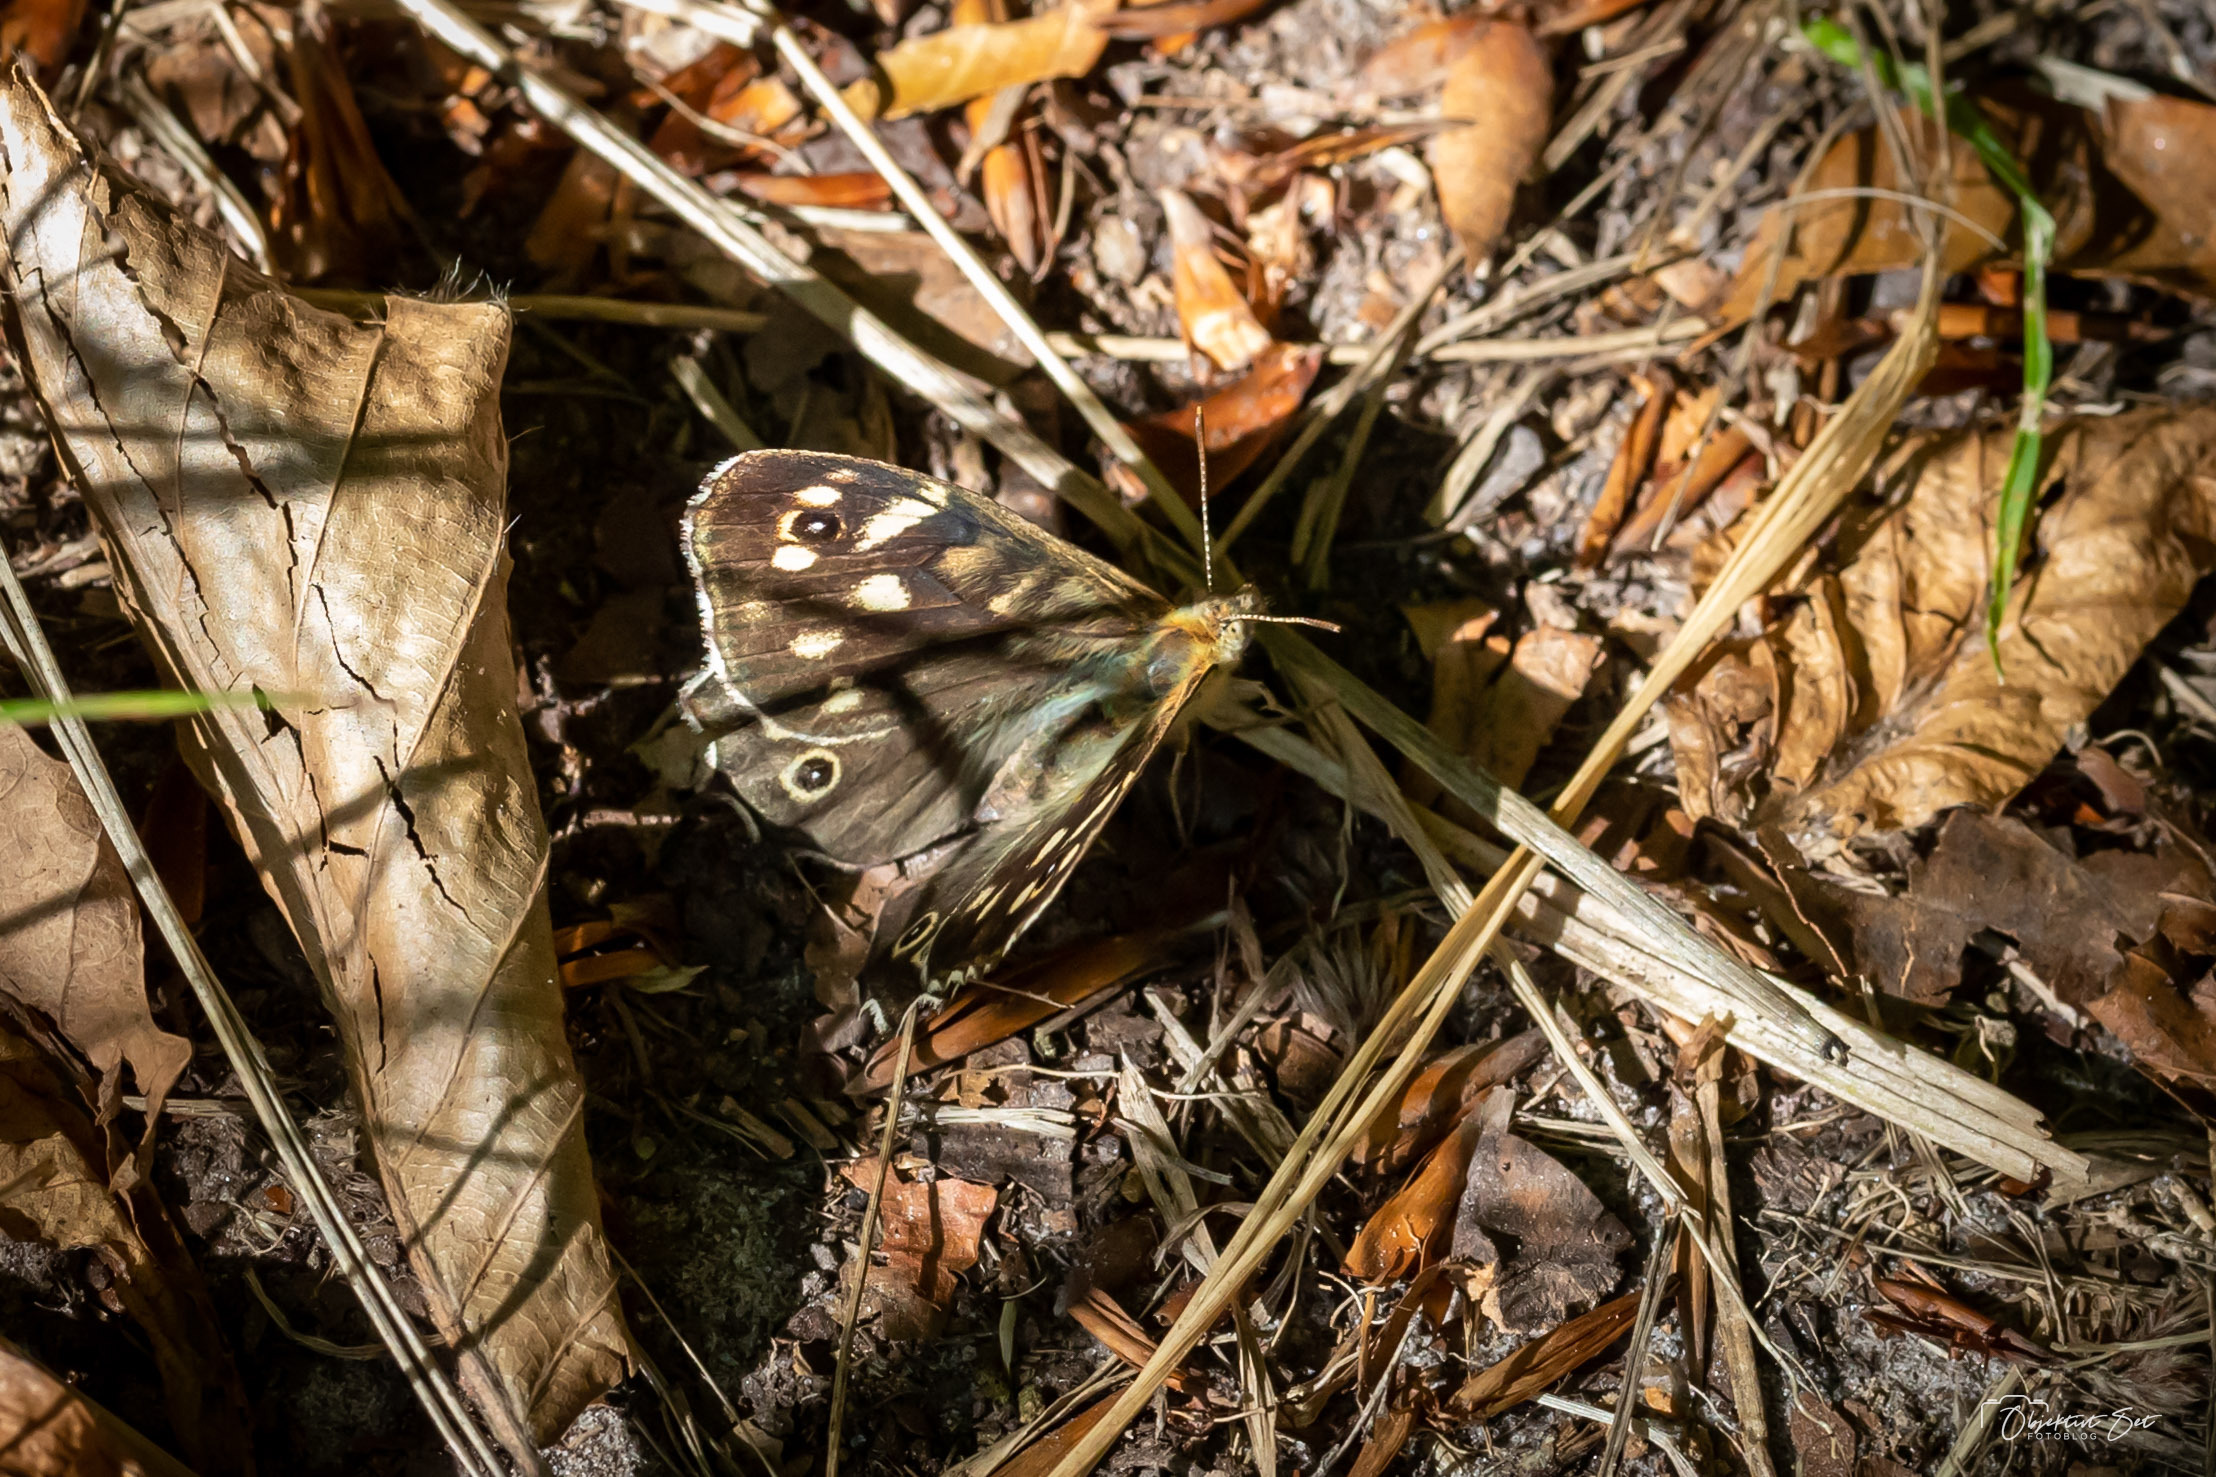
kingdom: Animalia
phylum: Arthropoda
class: Insecta
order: Lepidoptera
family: Nymphalidae
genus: Pararge
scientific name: Pararge aegeria
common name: Skovrandøje
